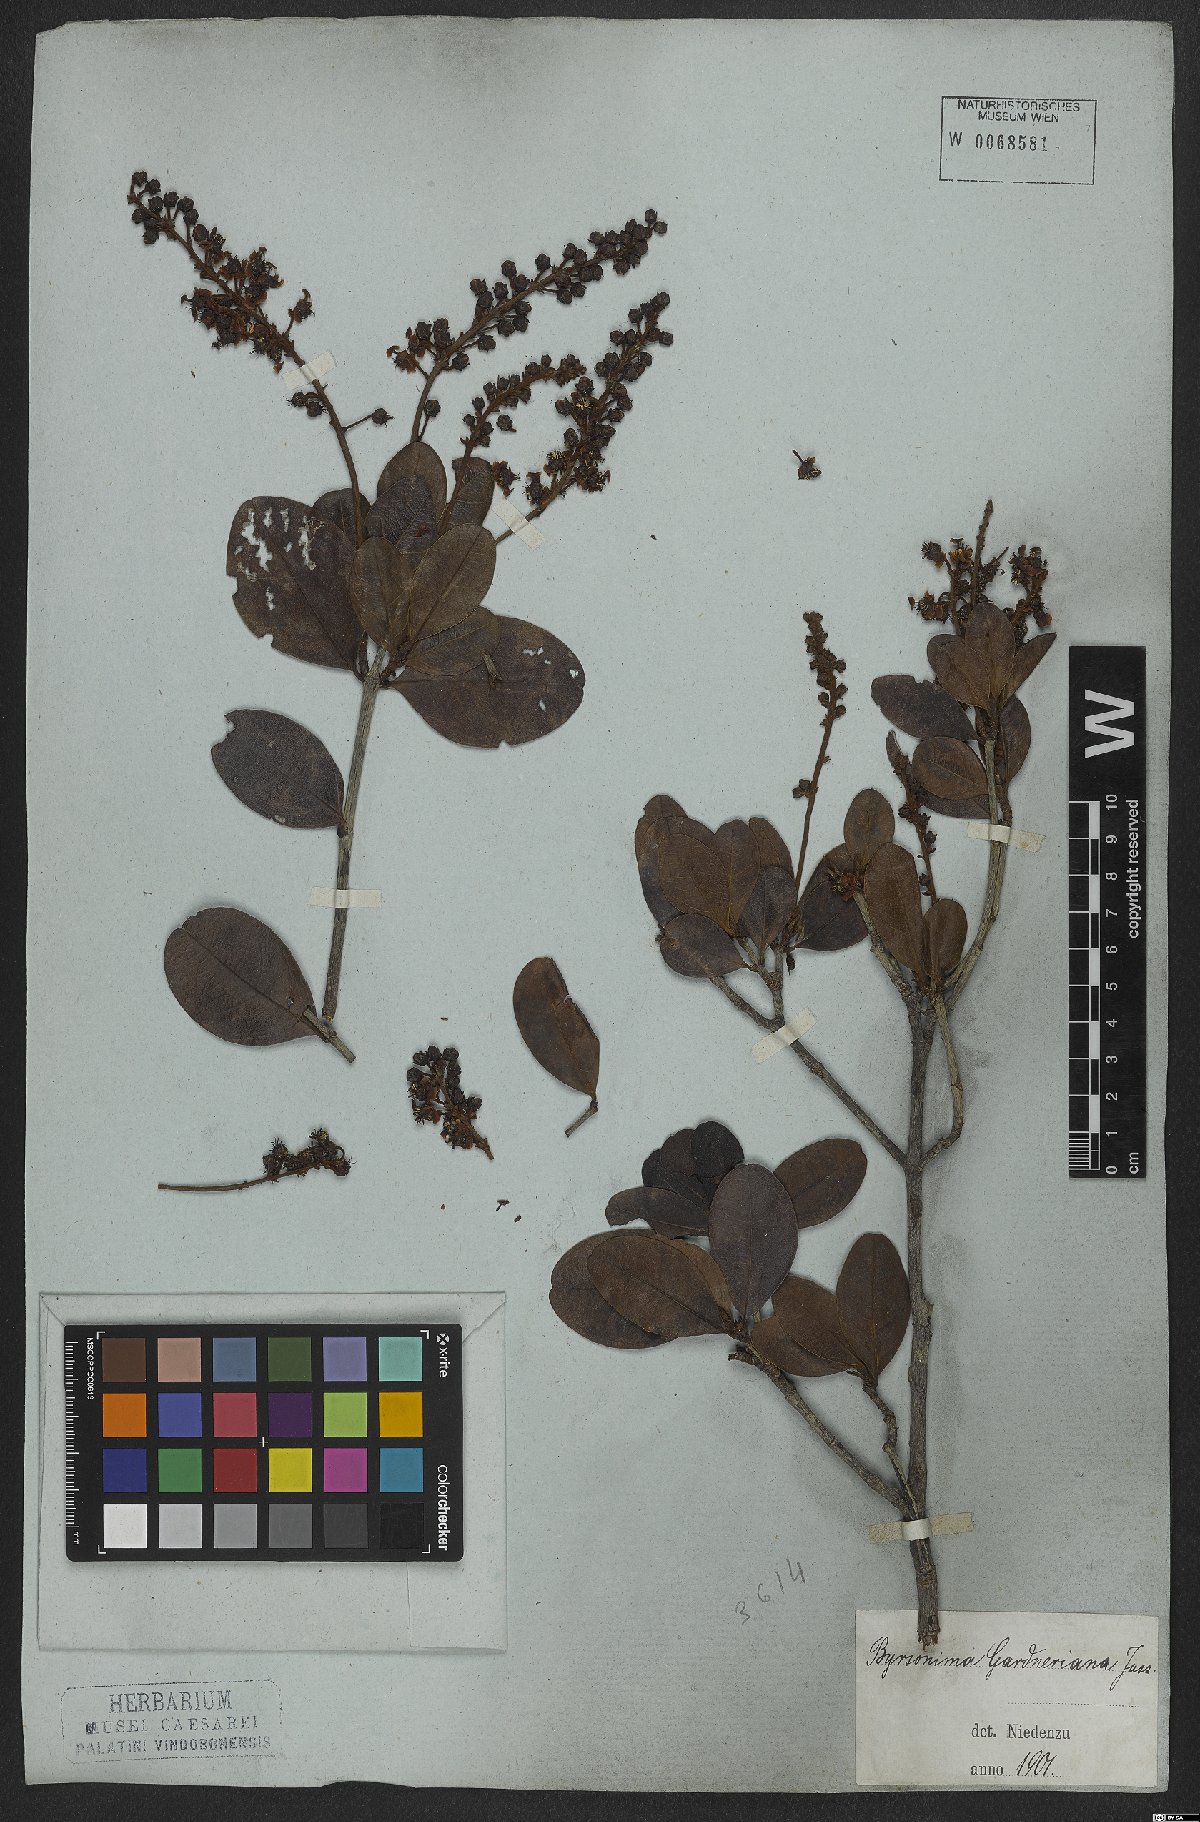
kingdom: Plantae
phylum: Tracheophyta
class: Magnoliopsida
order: Malpighiales
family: Malpighiaceae
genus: Byrsonima
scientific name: Byrsonima gardneriana
